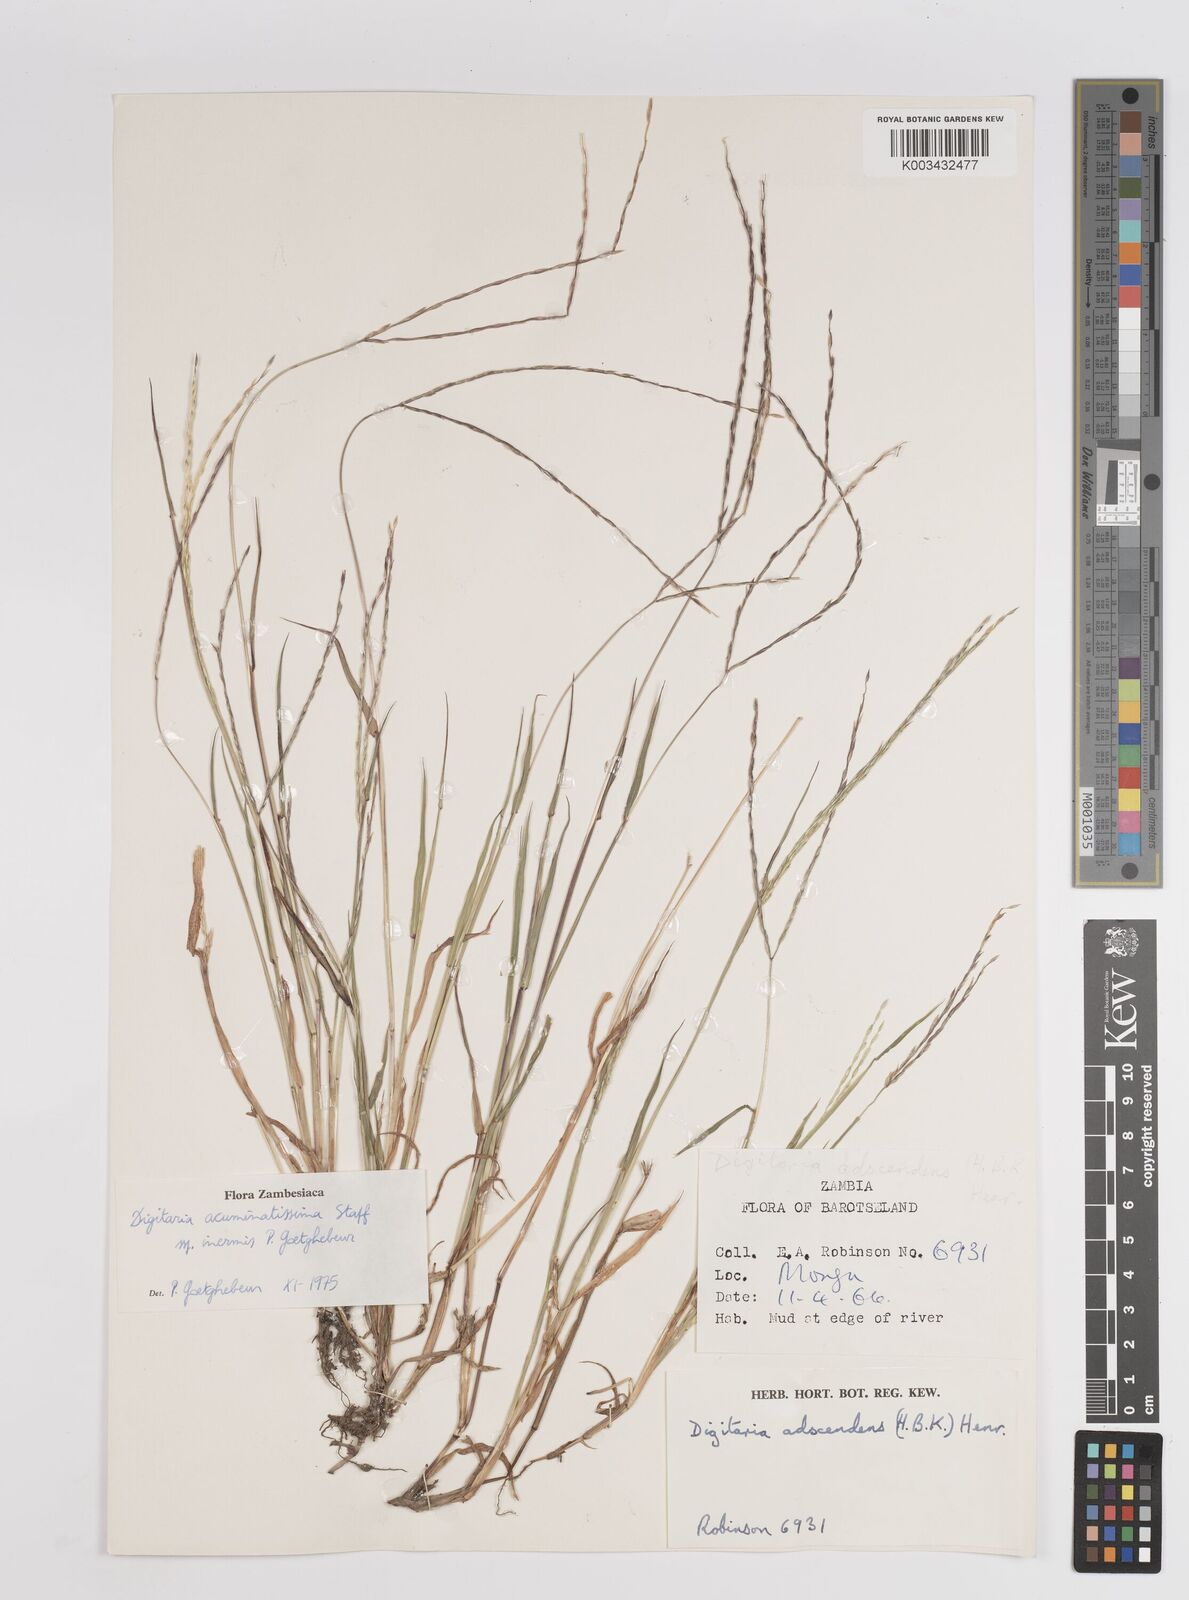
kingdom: Plantae
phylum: Tracheophyta
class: Liliopsida
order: Poales
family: Poaceae
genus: Digitaria
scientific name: Digitaria acuminatissima
